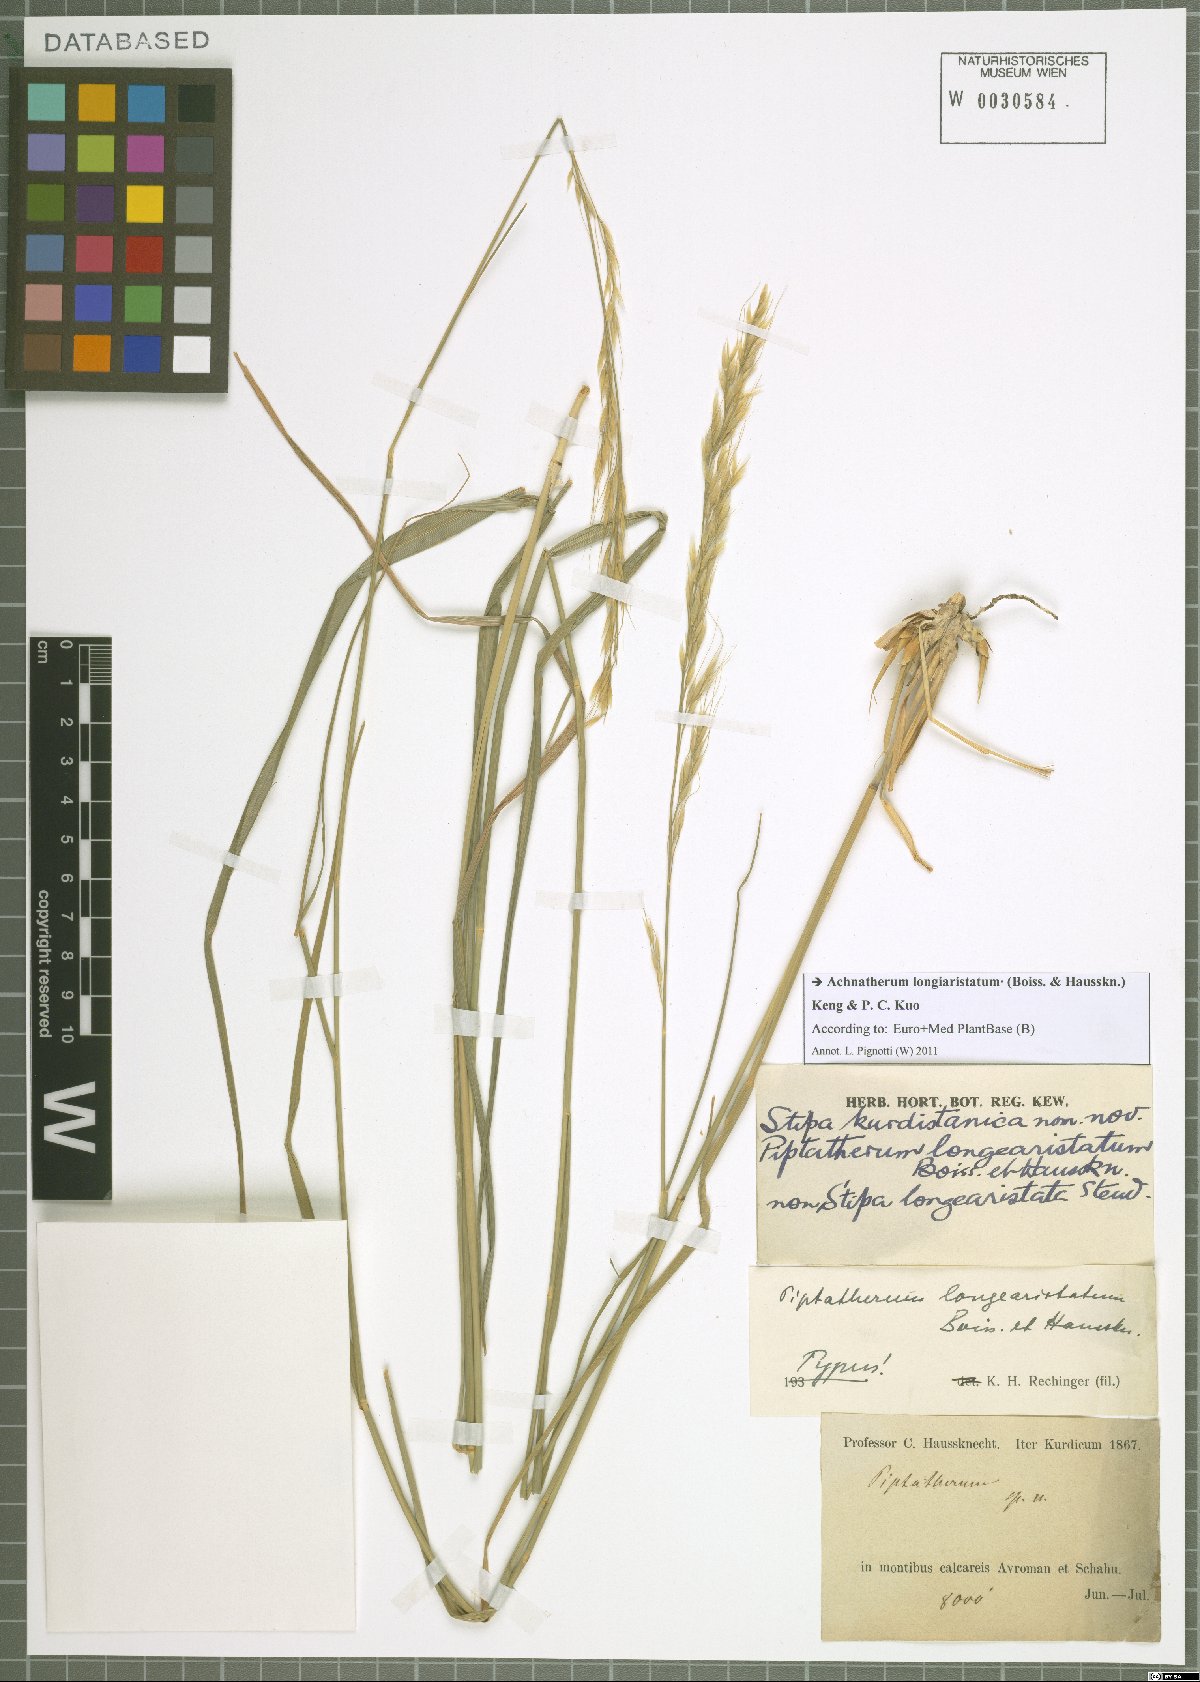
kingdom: Plantae
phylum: Tracheophyta
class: Liliopsida
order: Poales
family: Poaceae
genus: Achnatherum
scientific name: Achnatherum turcomanicum
